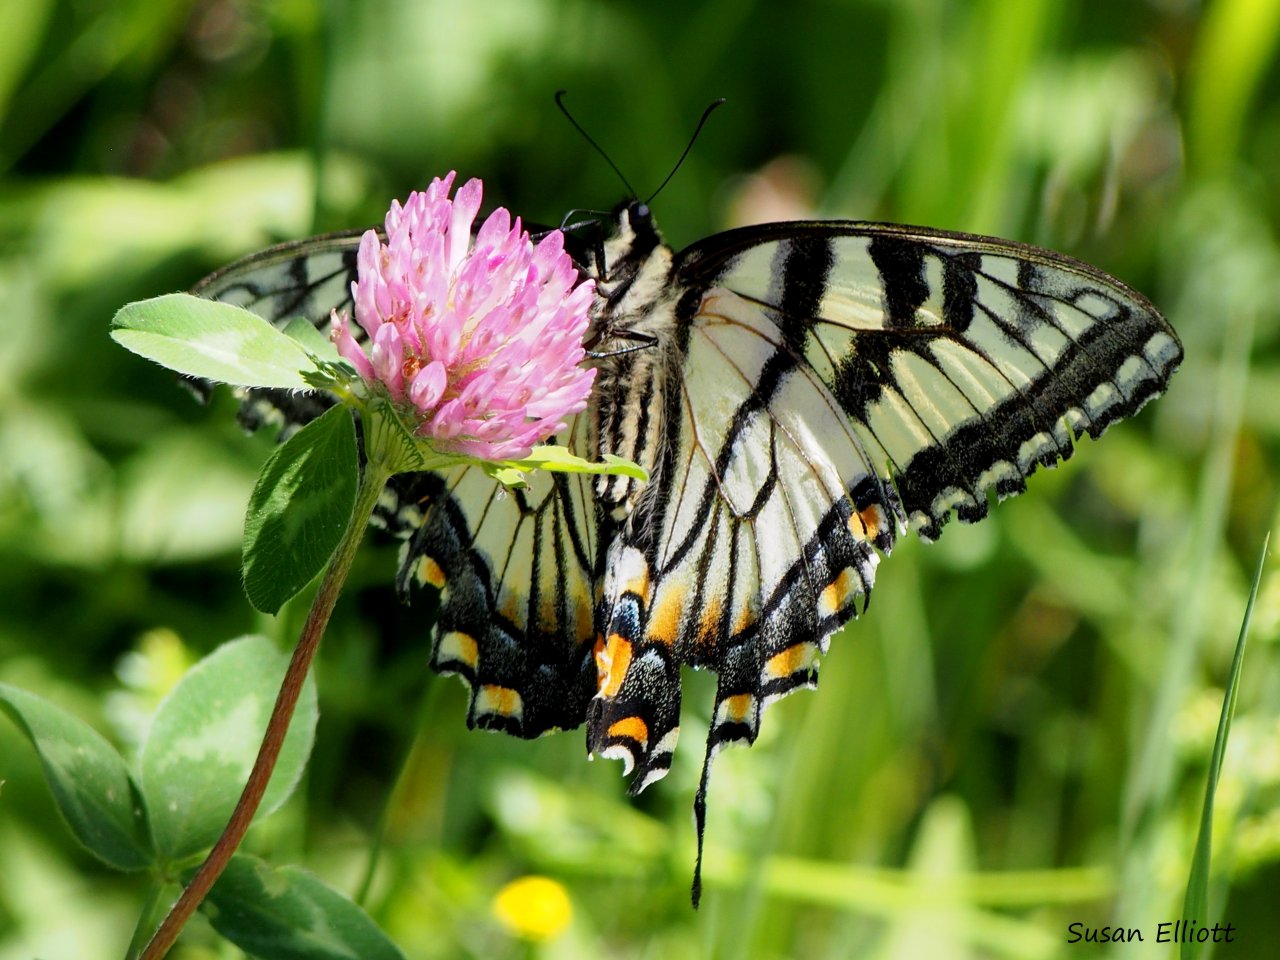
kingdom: Animalia
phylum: Arthropoda
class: Insecta
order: Lepidoptera
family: Papilionidae
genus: Pterourus
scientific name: Pterourus canadensis
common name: Canadian Tiger Swallowtail
